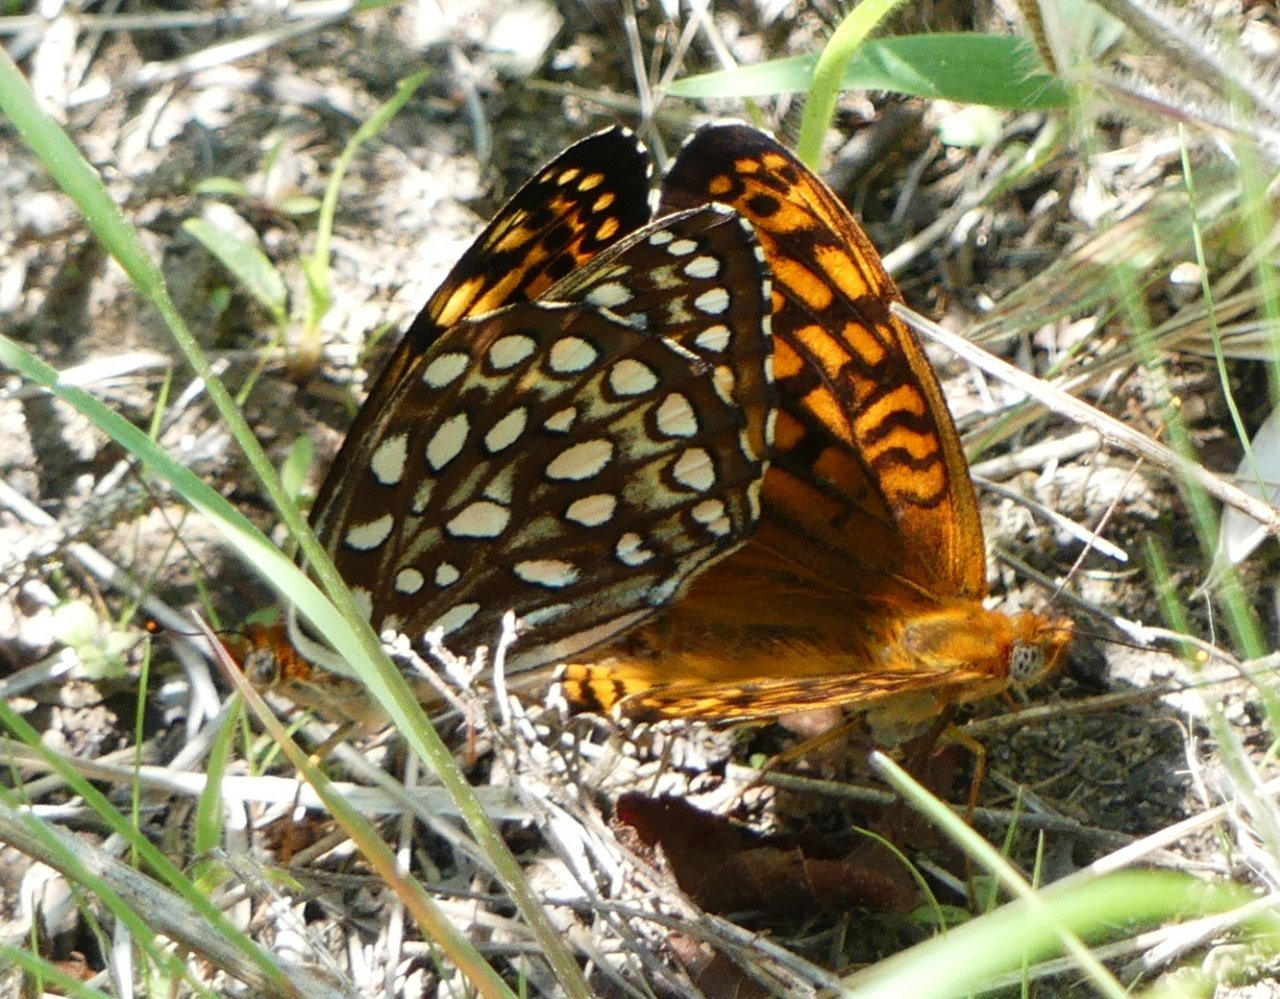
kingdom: Animalia
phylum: Arthropoda
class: Insecta
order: Lepidoptera
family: Nymphalidae
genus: Speyeria
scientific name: Speyeria atlantis
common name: Atlantis Fritillary
